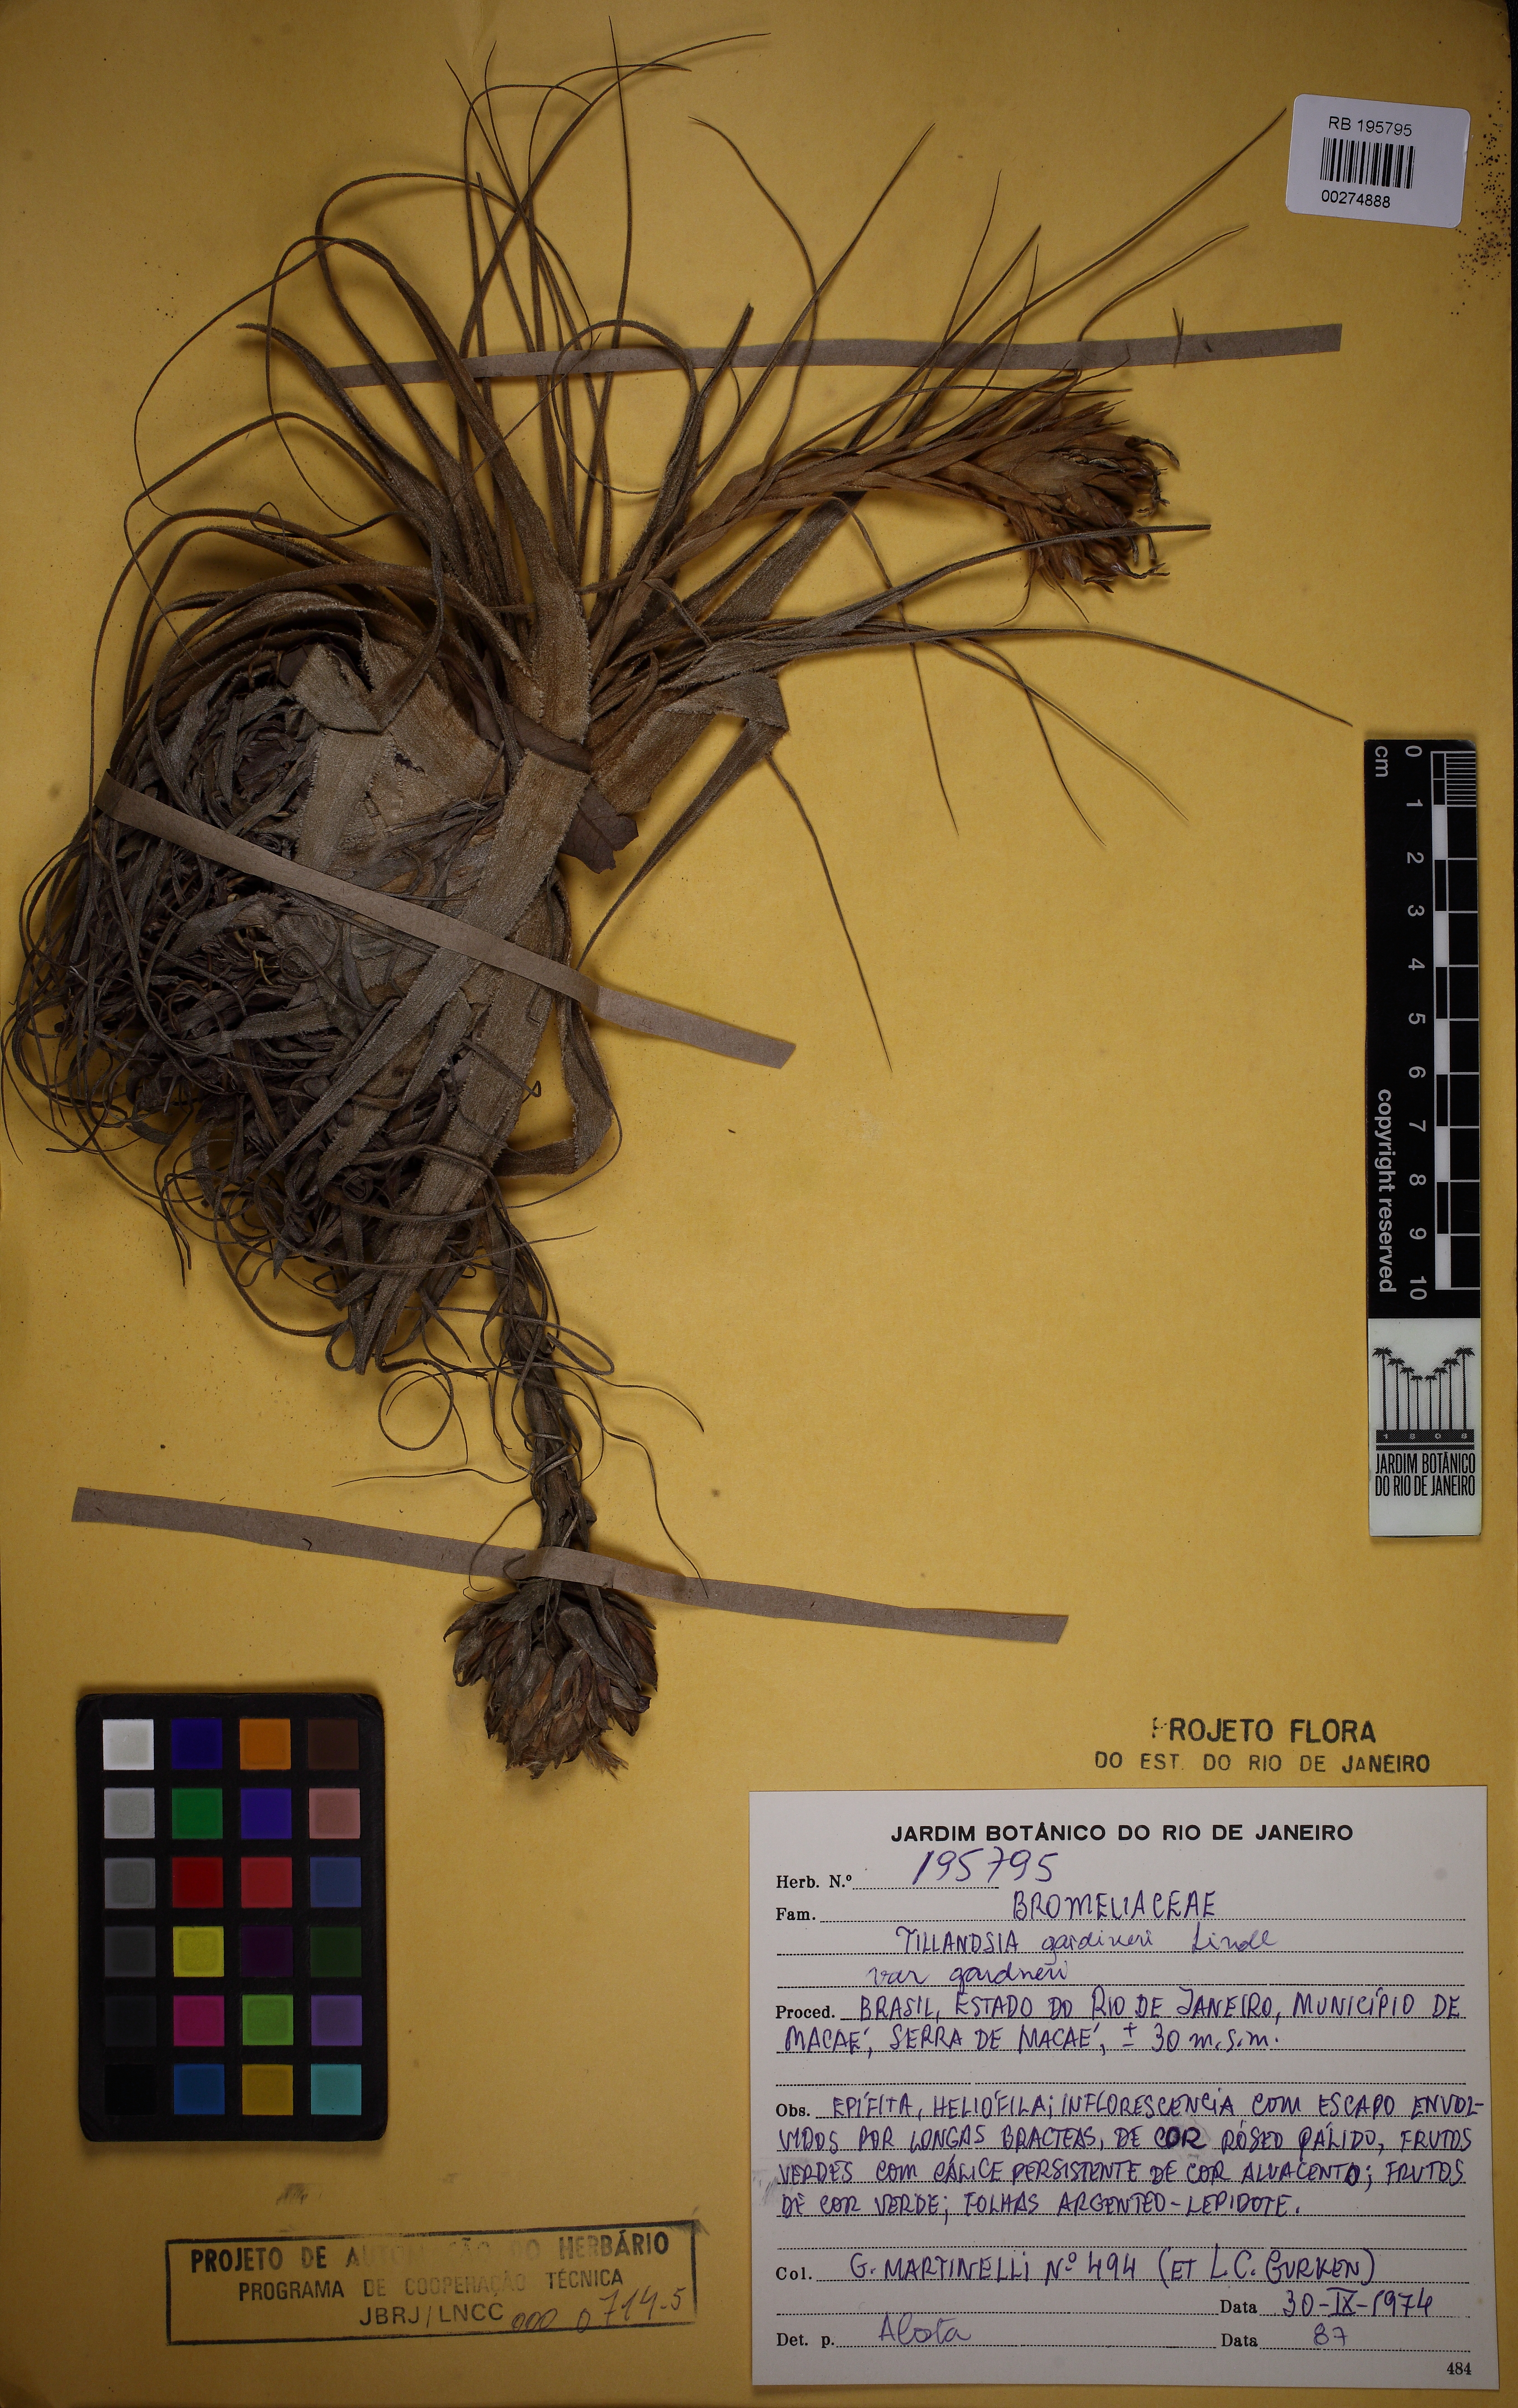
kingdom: Plantae
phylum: Tracheophyta
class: Liliopsida
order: Poales
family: Bromeliaceae
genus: Tillandsia
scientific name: Tillandsia gardneri
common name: Airplant
